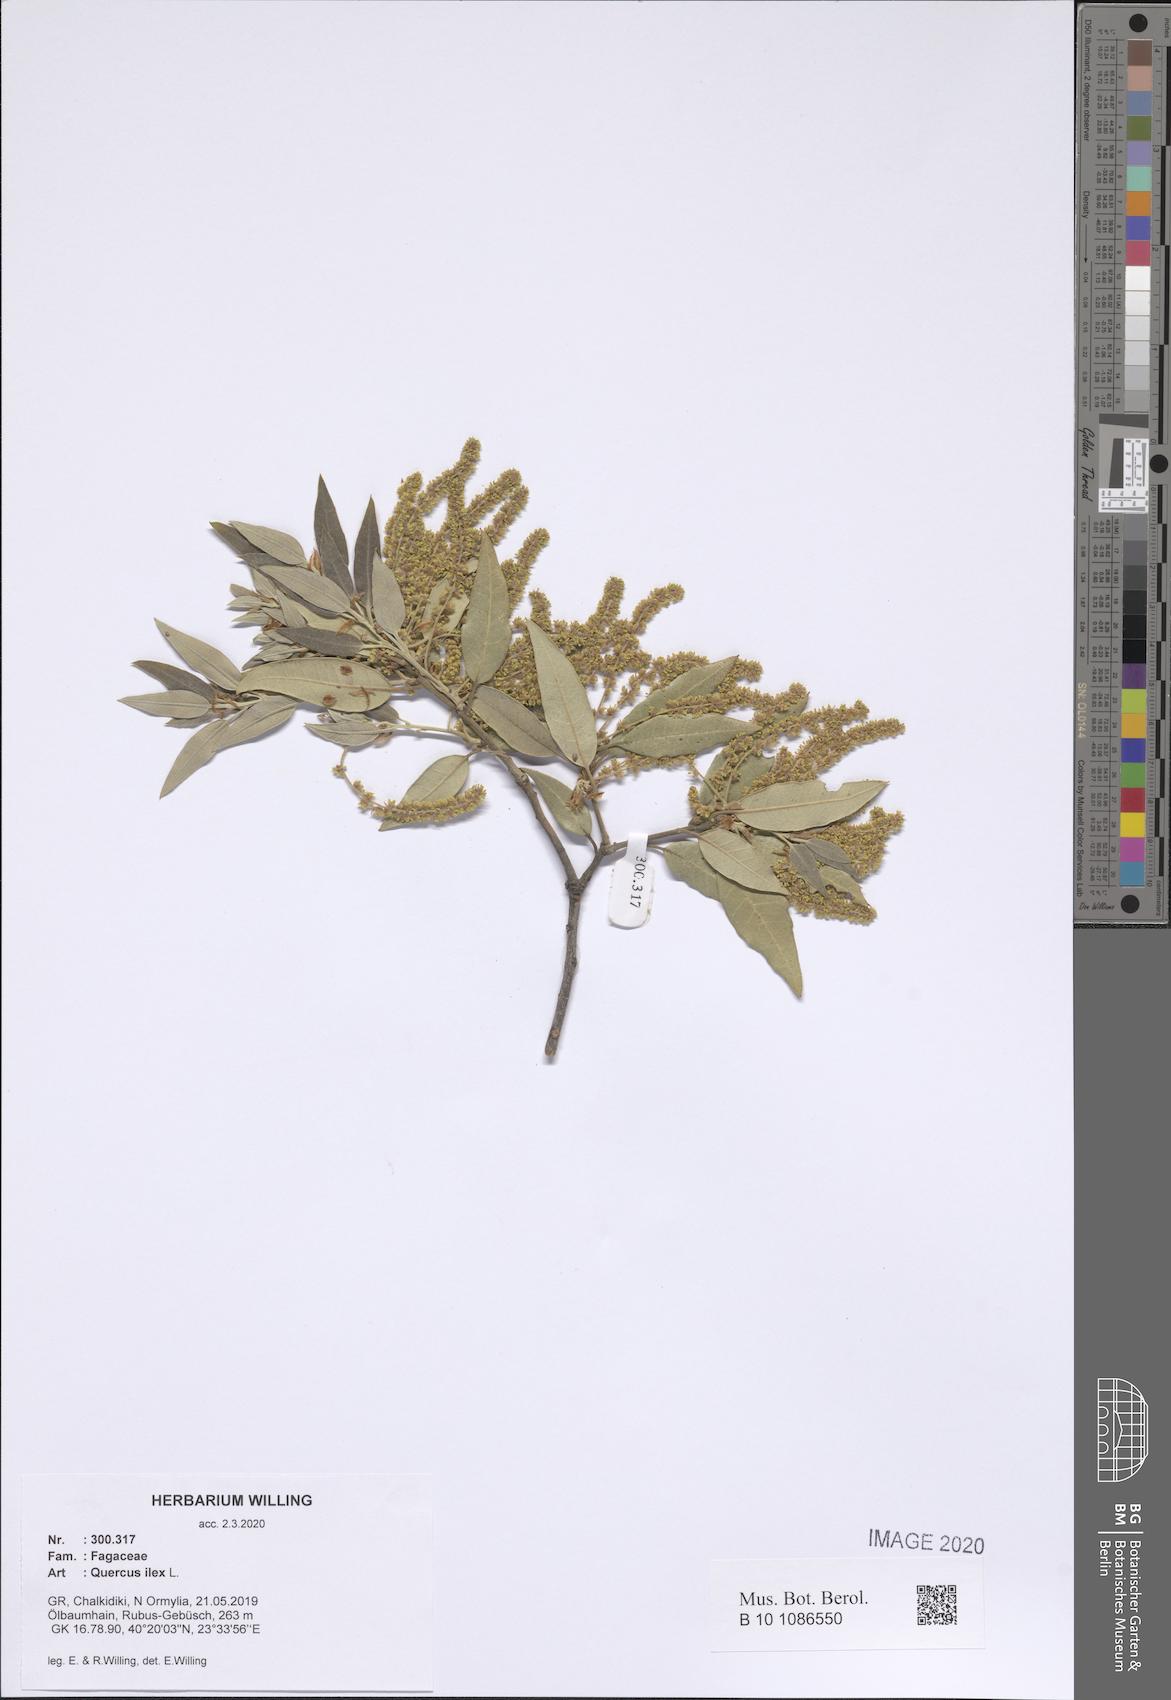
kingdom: Plantae
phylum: Tracheophyta
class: Magnoliopsida
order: Fagales
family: Fagaceae
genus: Quercus
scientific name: Quercus ilex
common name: Evergreen oak
